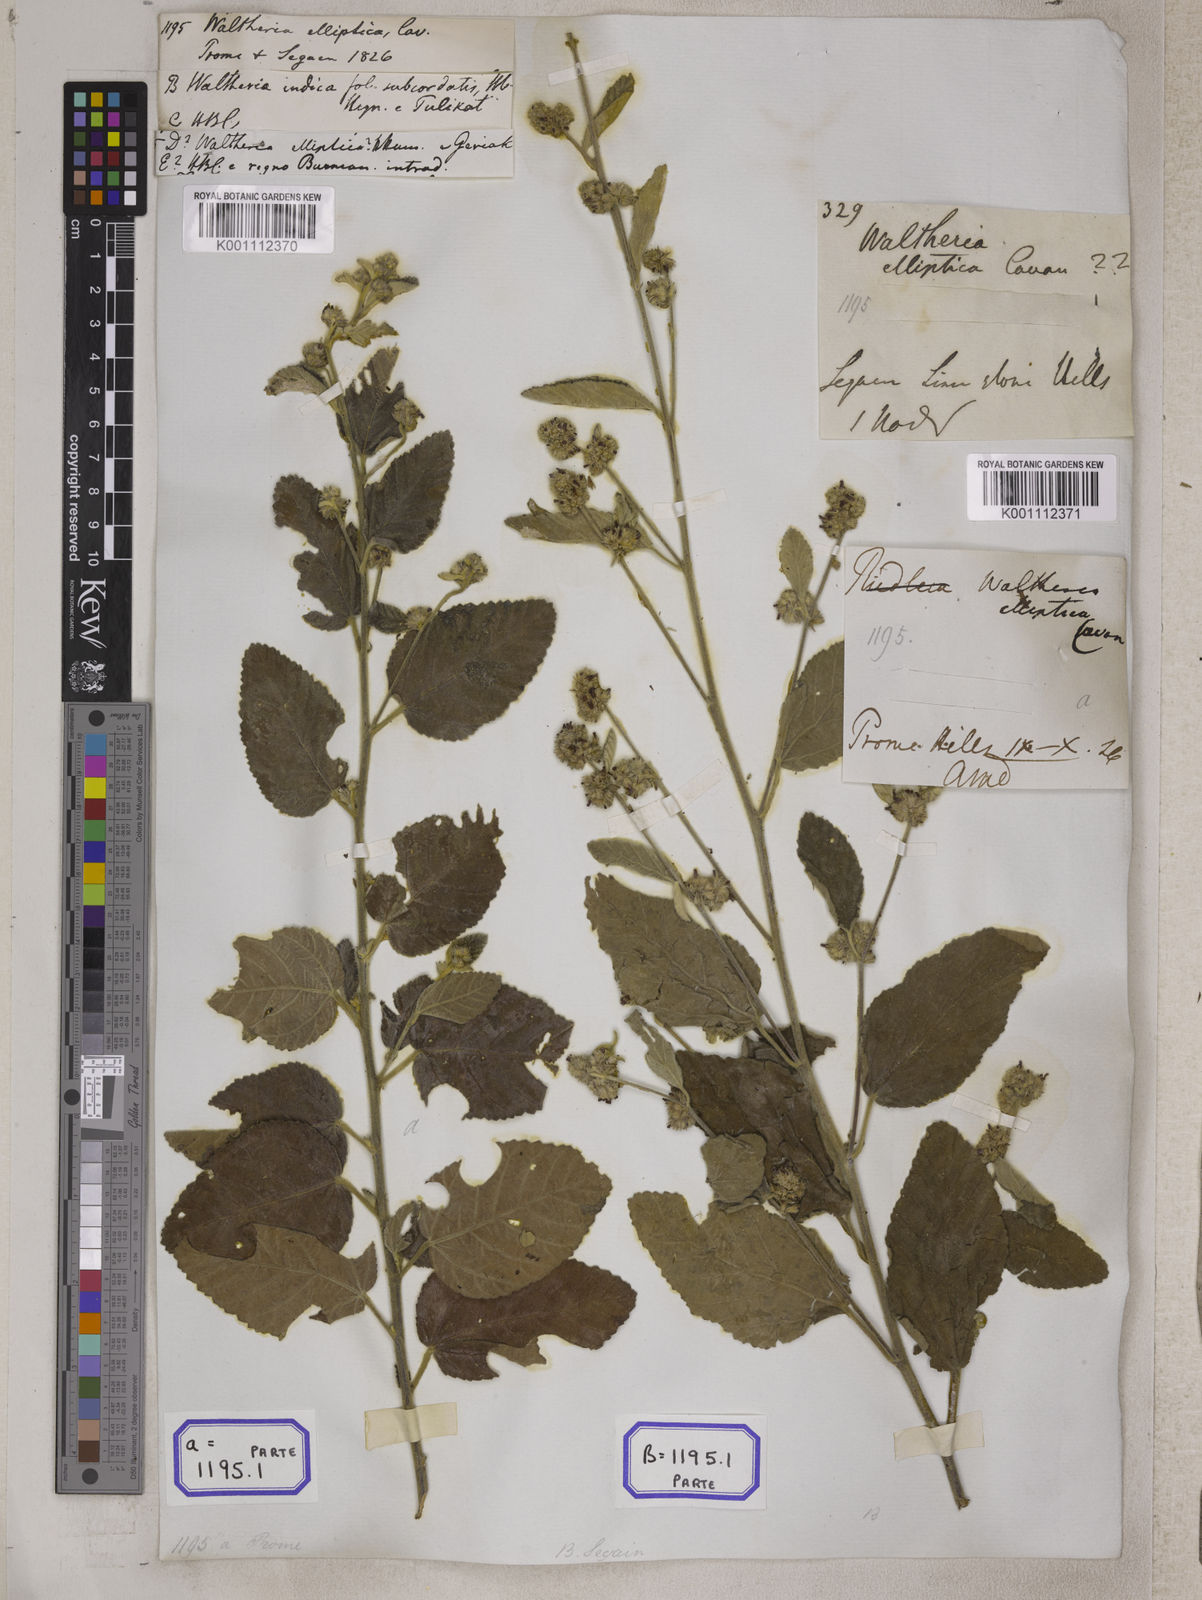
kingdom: Plantae
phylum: Tracheophyta
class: Magnoliopsida
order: Malvales
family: Malvaceae
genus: Waltheria
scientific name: Waltheria indica
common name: Leather-coat
